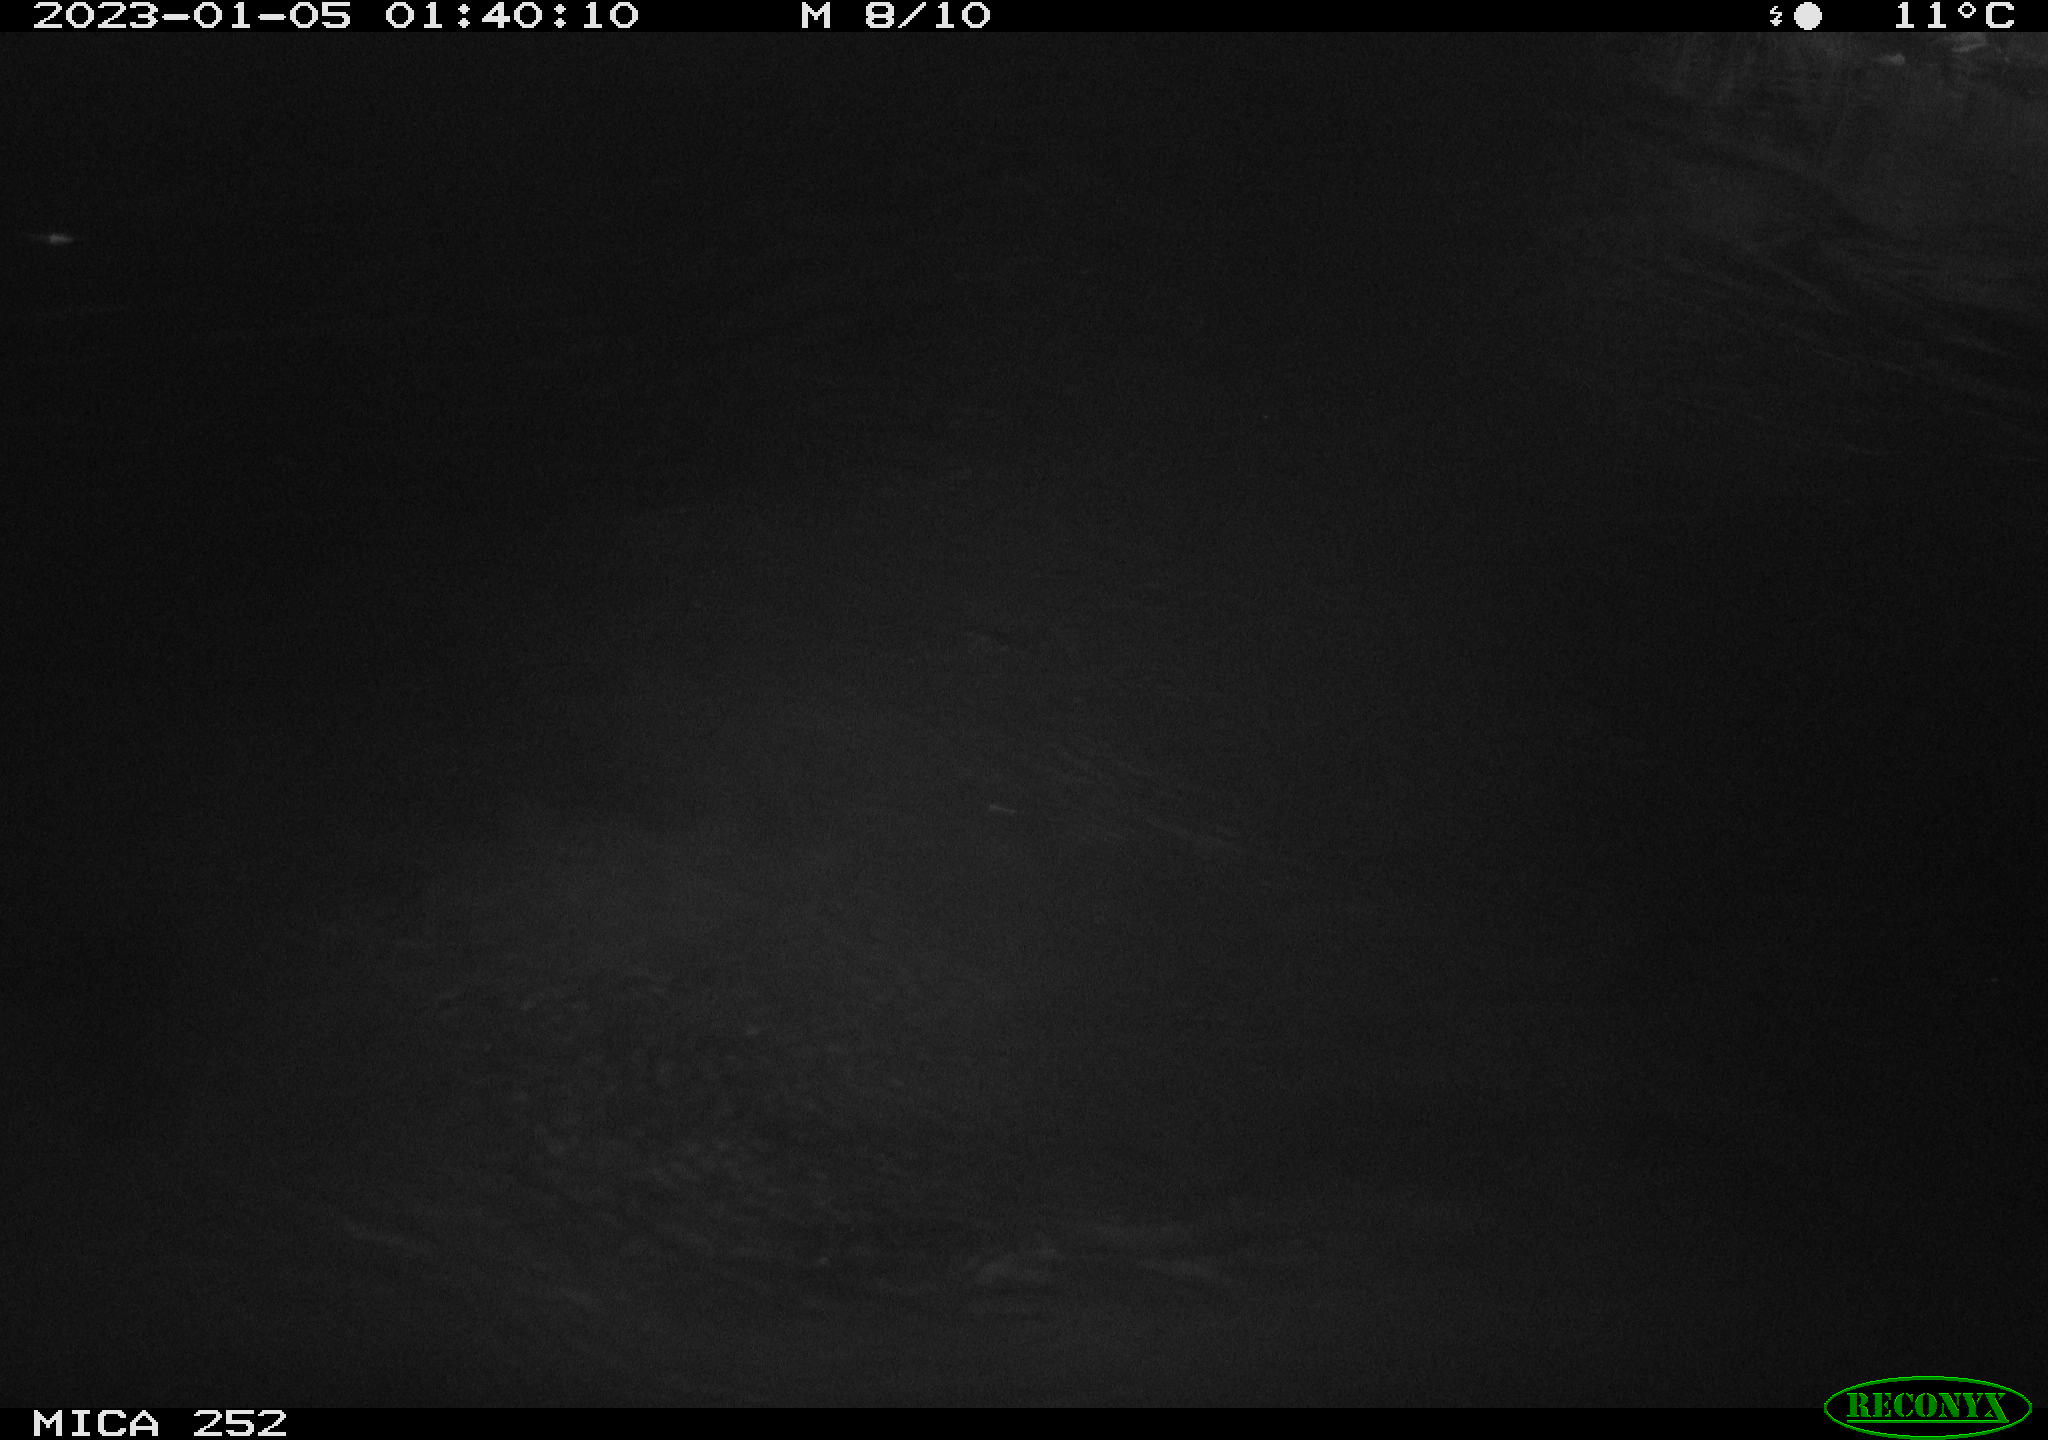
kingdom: Animalia
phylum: Chordata
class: Mammalia
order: Rodentia
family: Castoridae
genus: Castor
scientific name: Castor fiber
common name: Eurasian beaver
